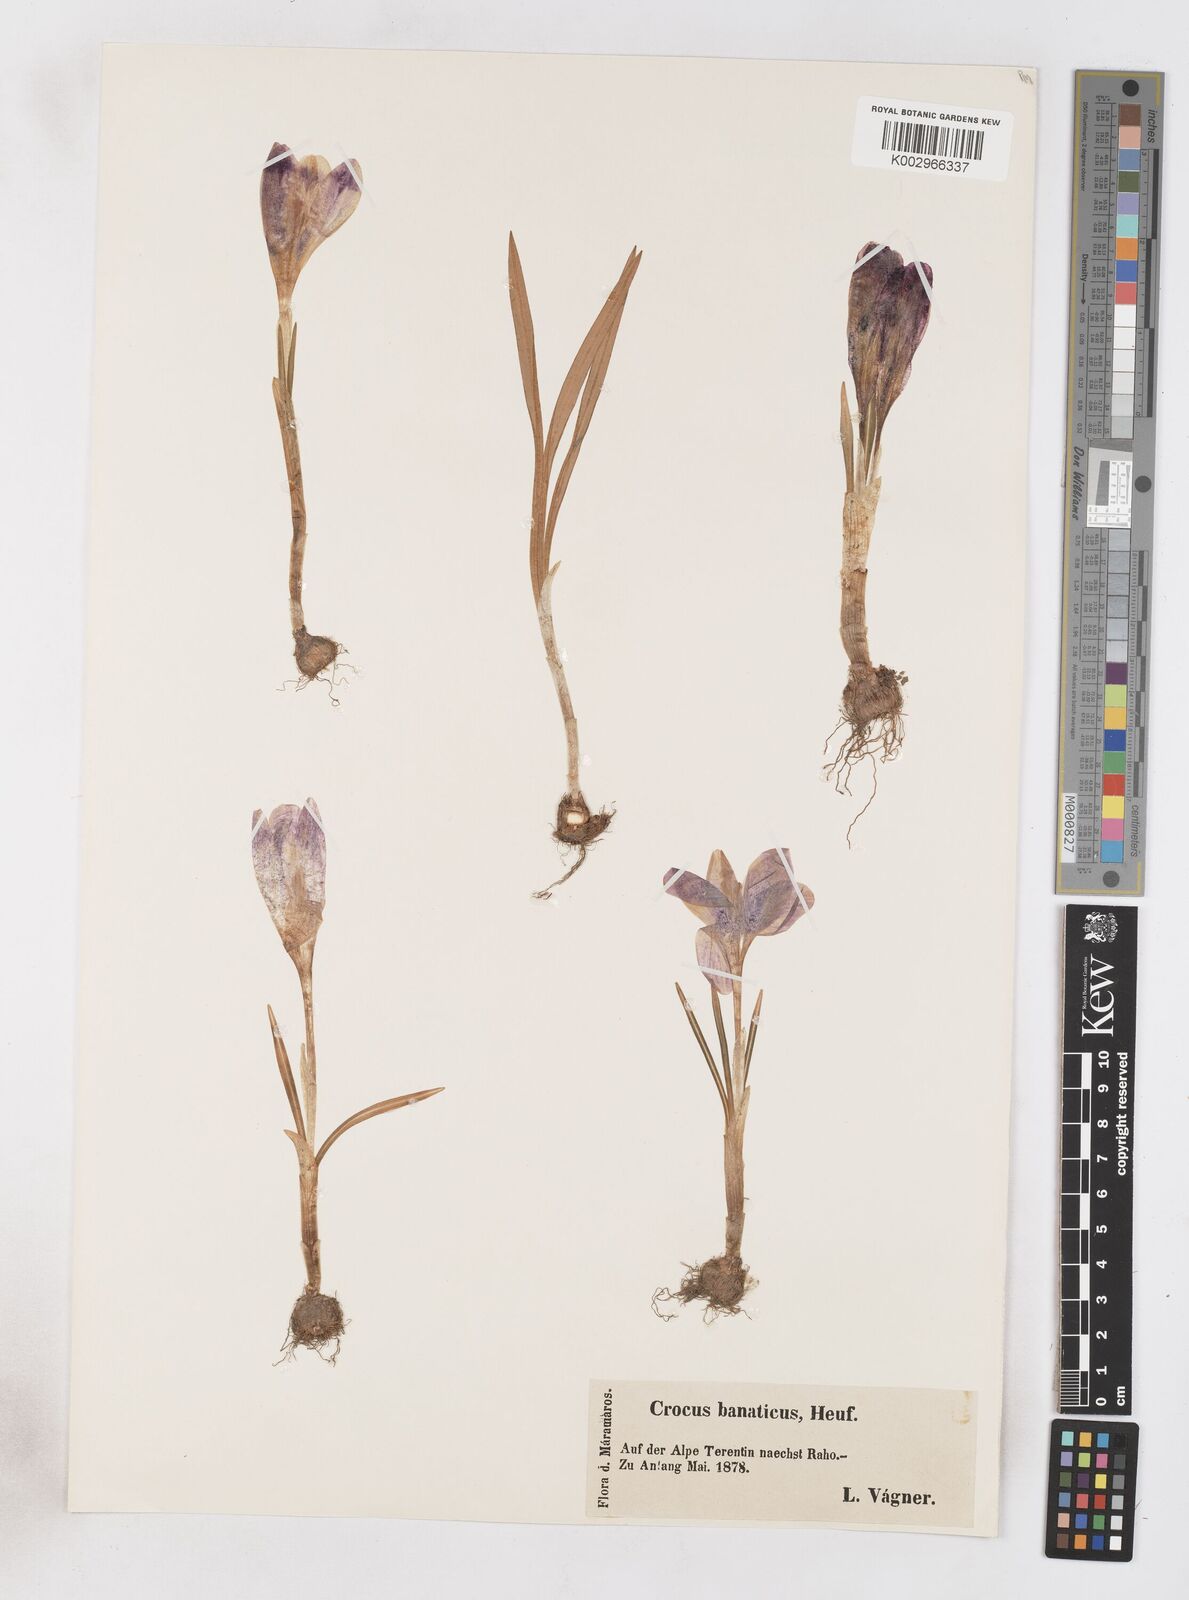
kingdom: Plantae
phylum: Tracheophyta
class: Liliopsida
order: Asparagales
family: Iridaceae
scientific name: Iridaceae
